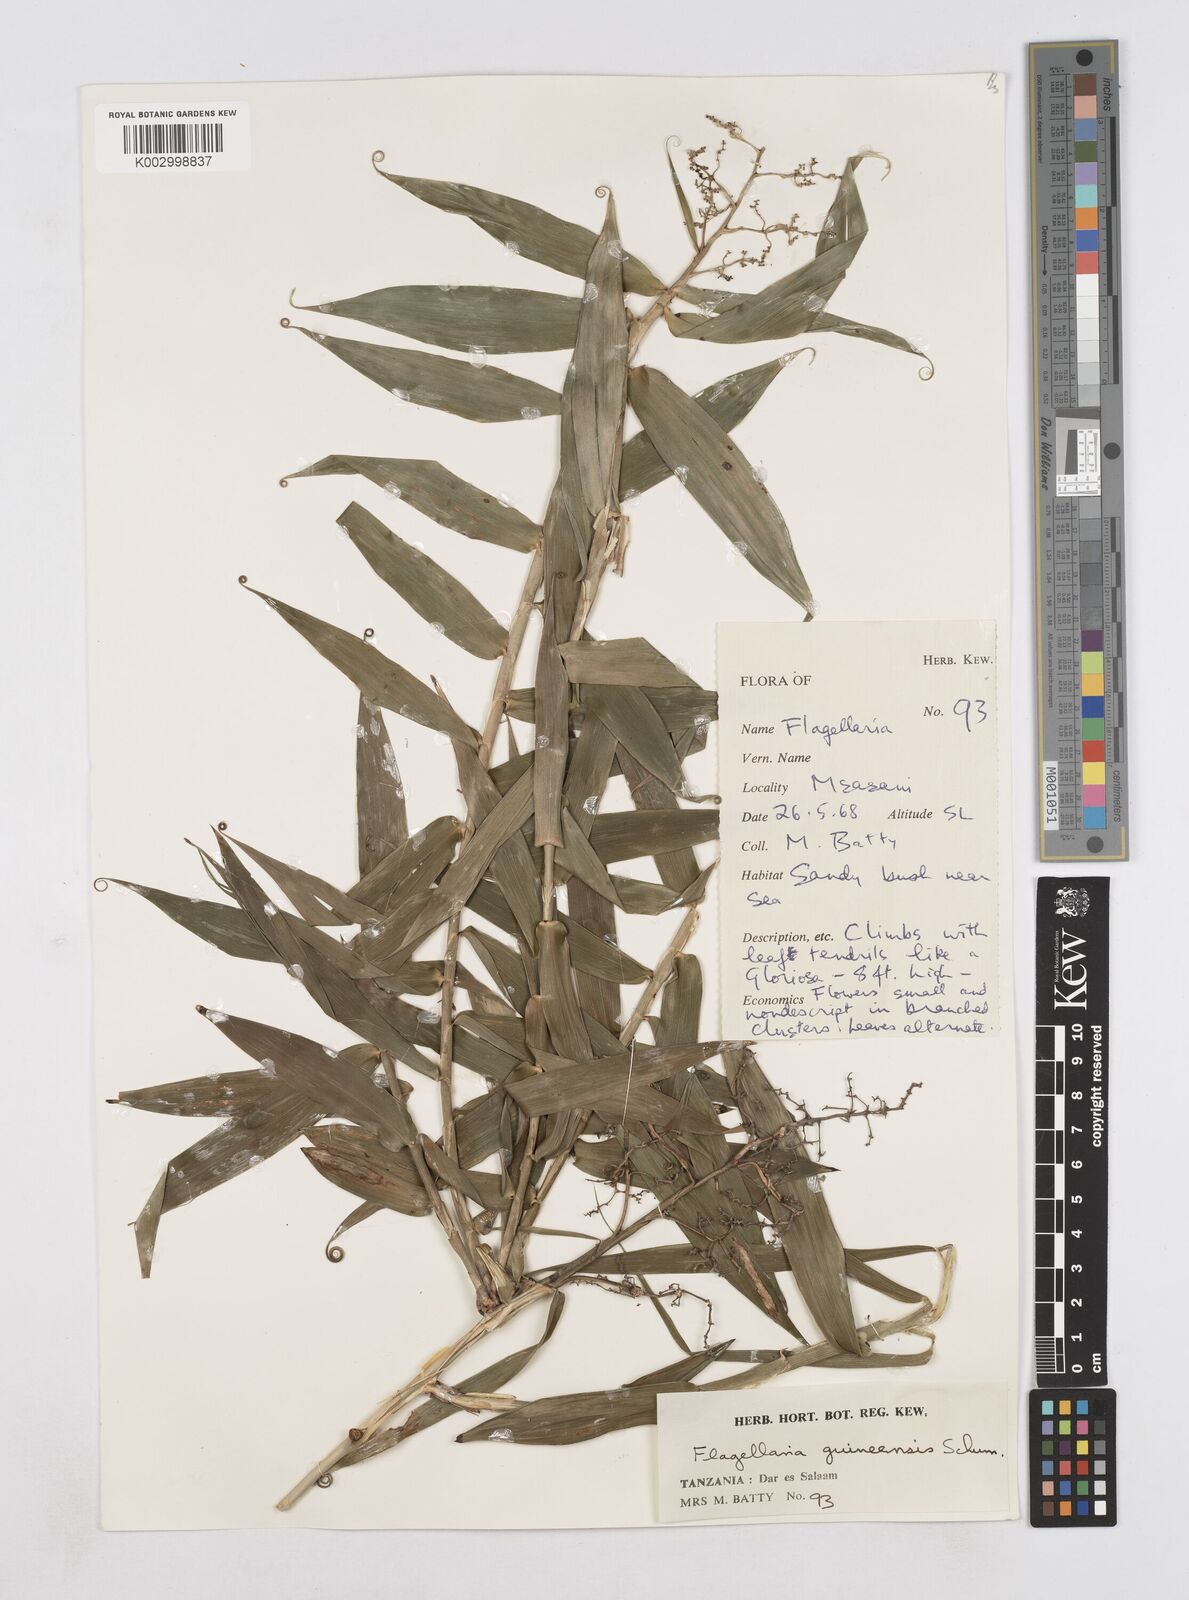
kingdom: Plantae
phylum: Tracheophyta
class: Liliopsida
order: Poales
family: Flagellariaceae
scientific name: Flagellariaceae
